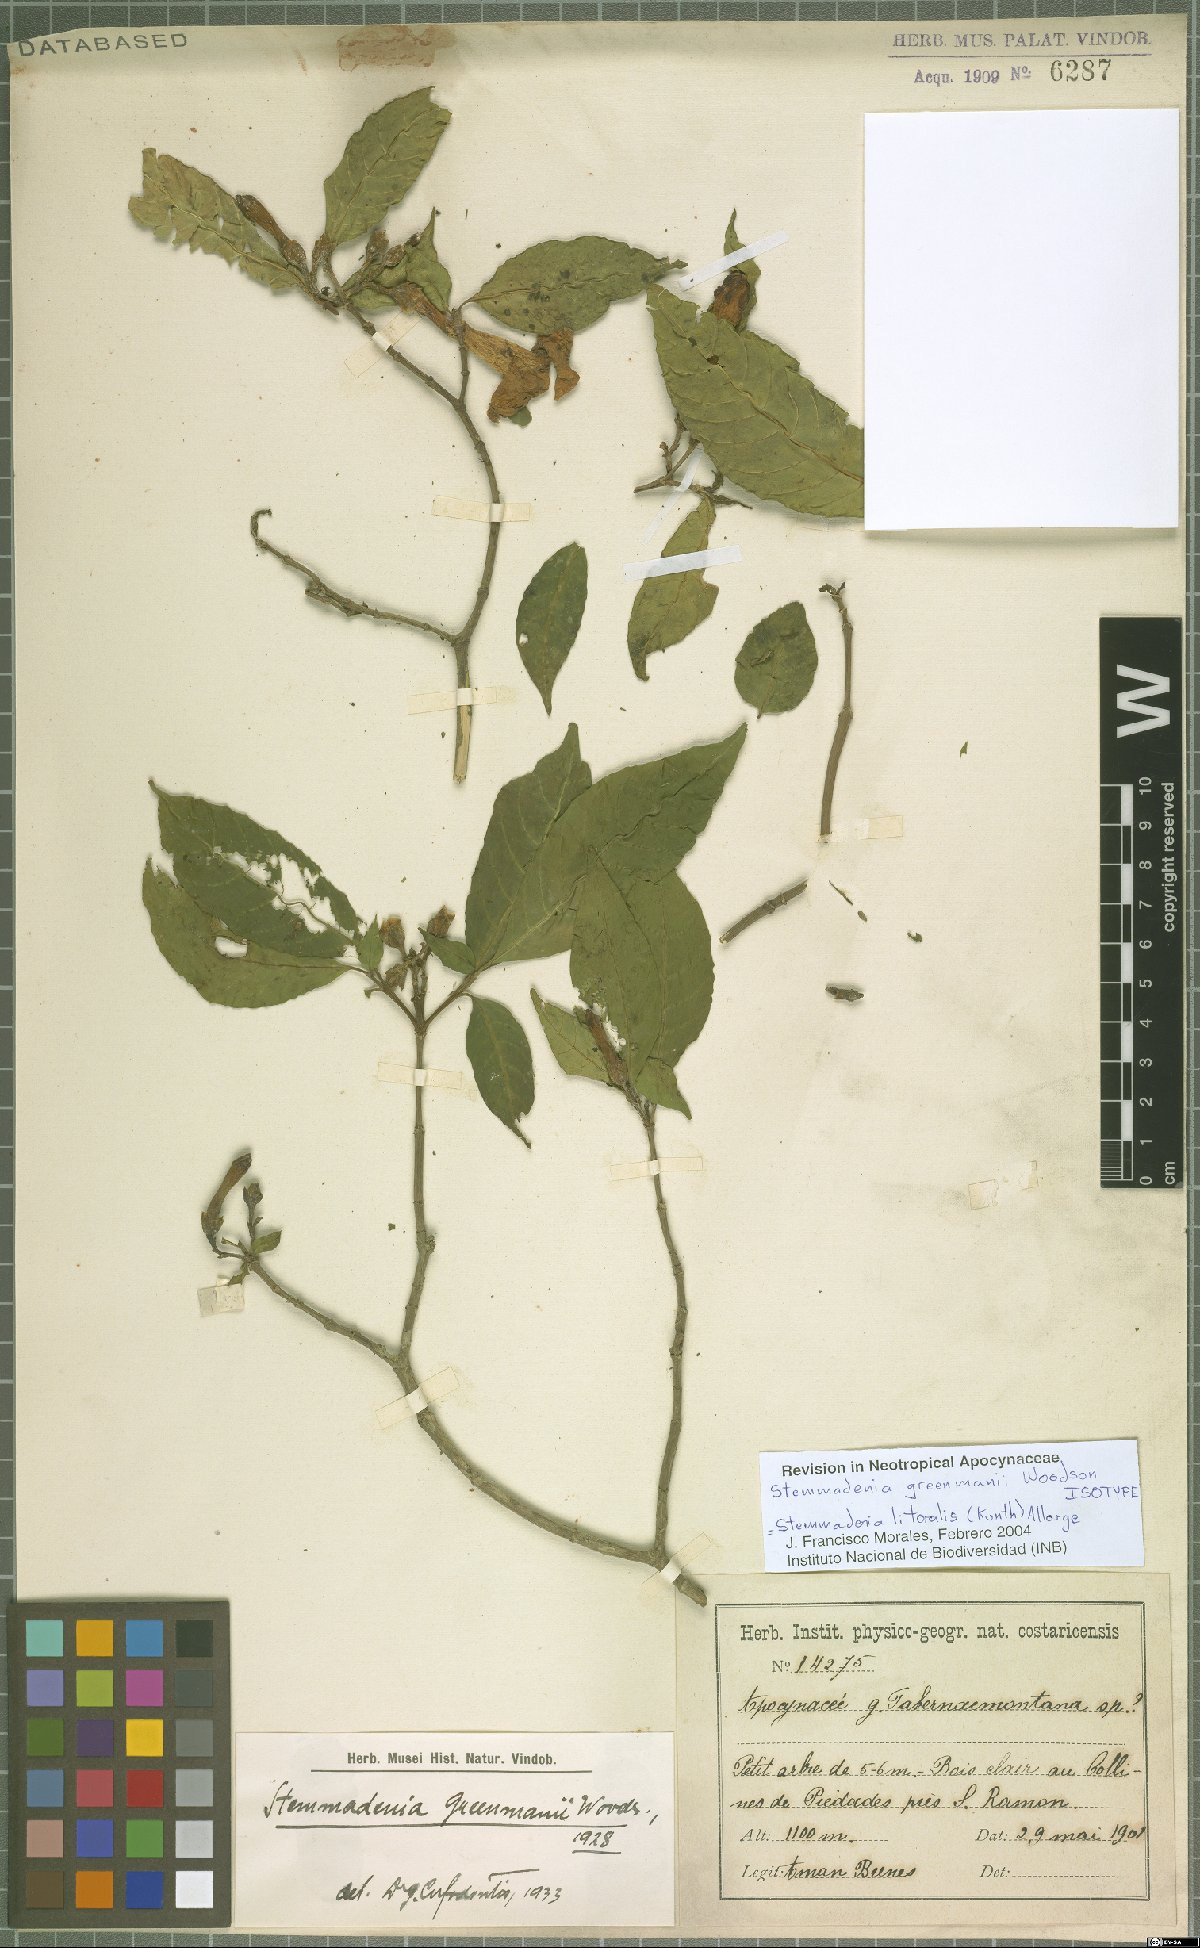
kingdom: Plantae
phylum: Tracheophyta
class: Magnoliopsida
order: Gentianales
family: Apocynaceae
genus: Tabernaemontana
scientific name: Tabernaemontana litoralis
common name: Milkwood
